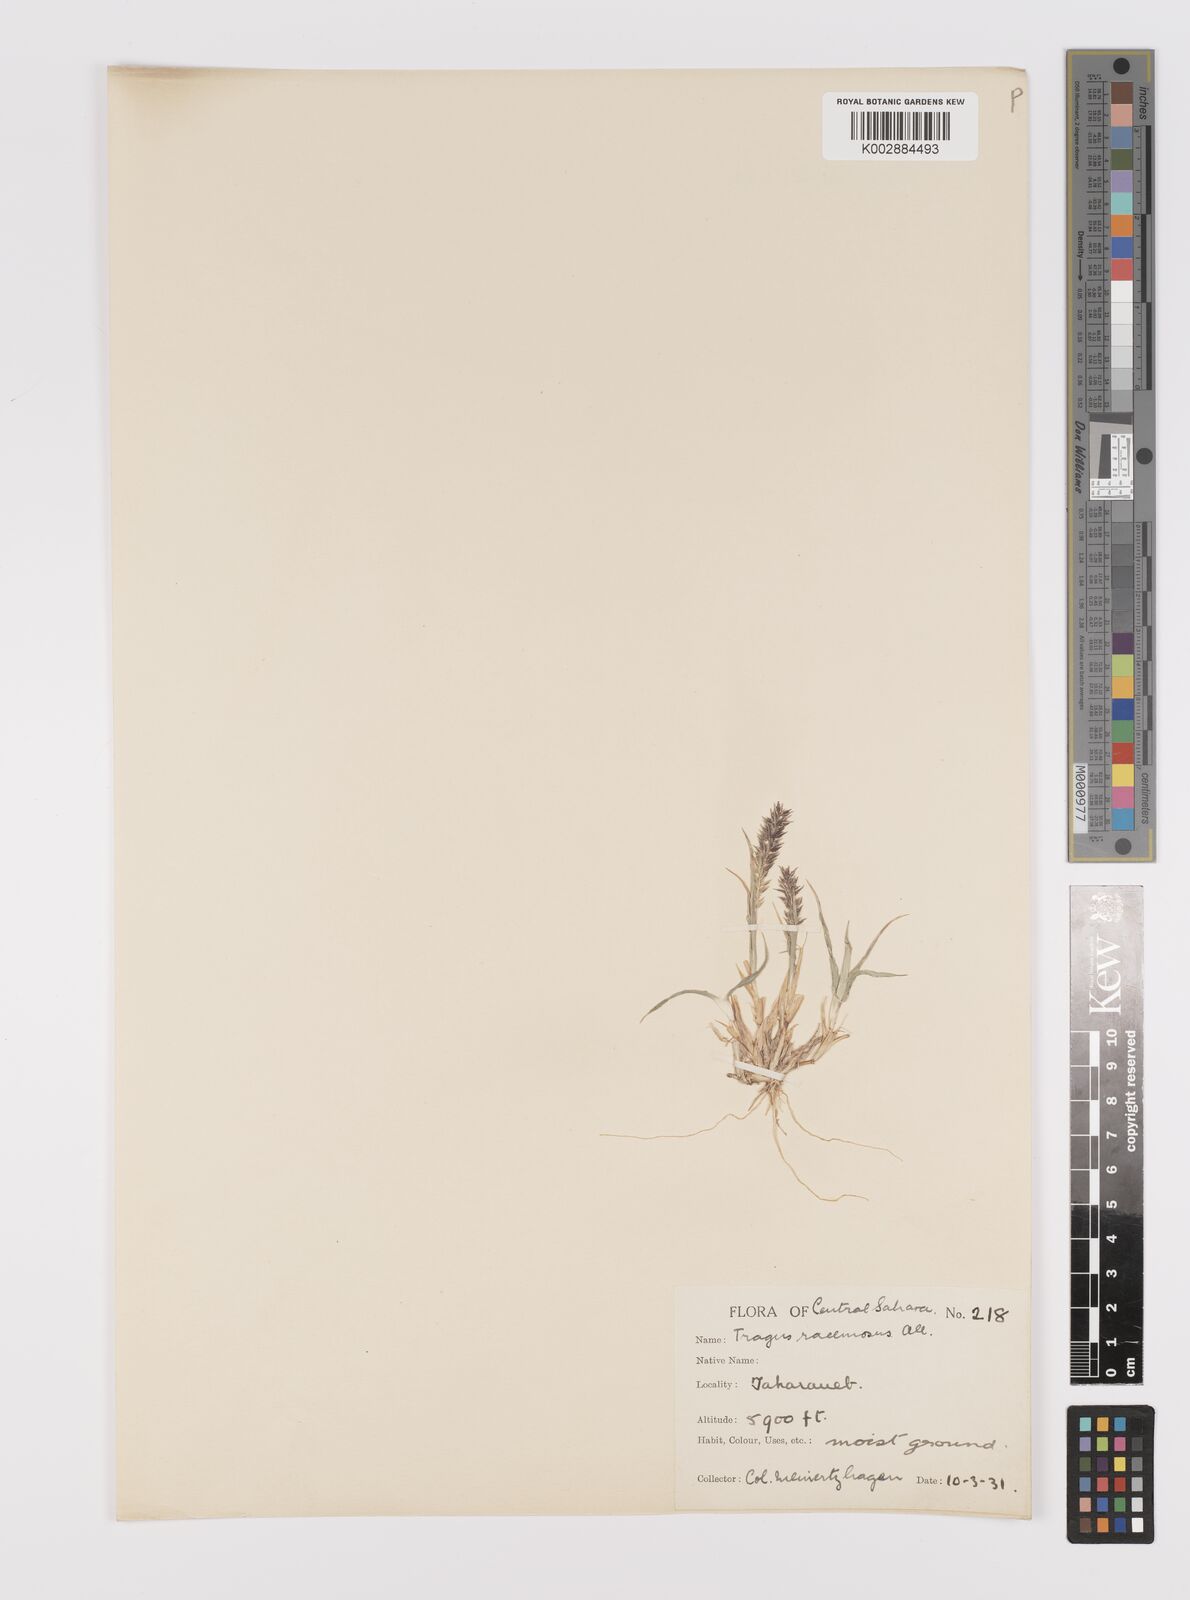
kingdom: Plantae
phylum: Tracheophyta
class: Liliopsida
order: Poales
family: Poaceae
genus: Tragus
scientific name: Tragus racemosus
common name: European bur-grass
